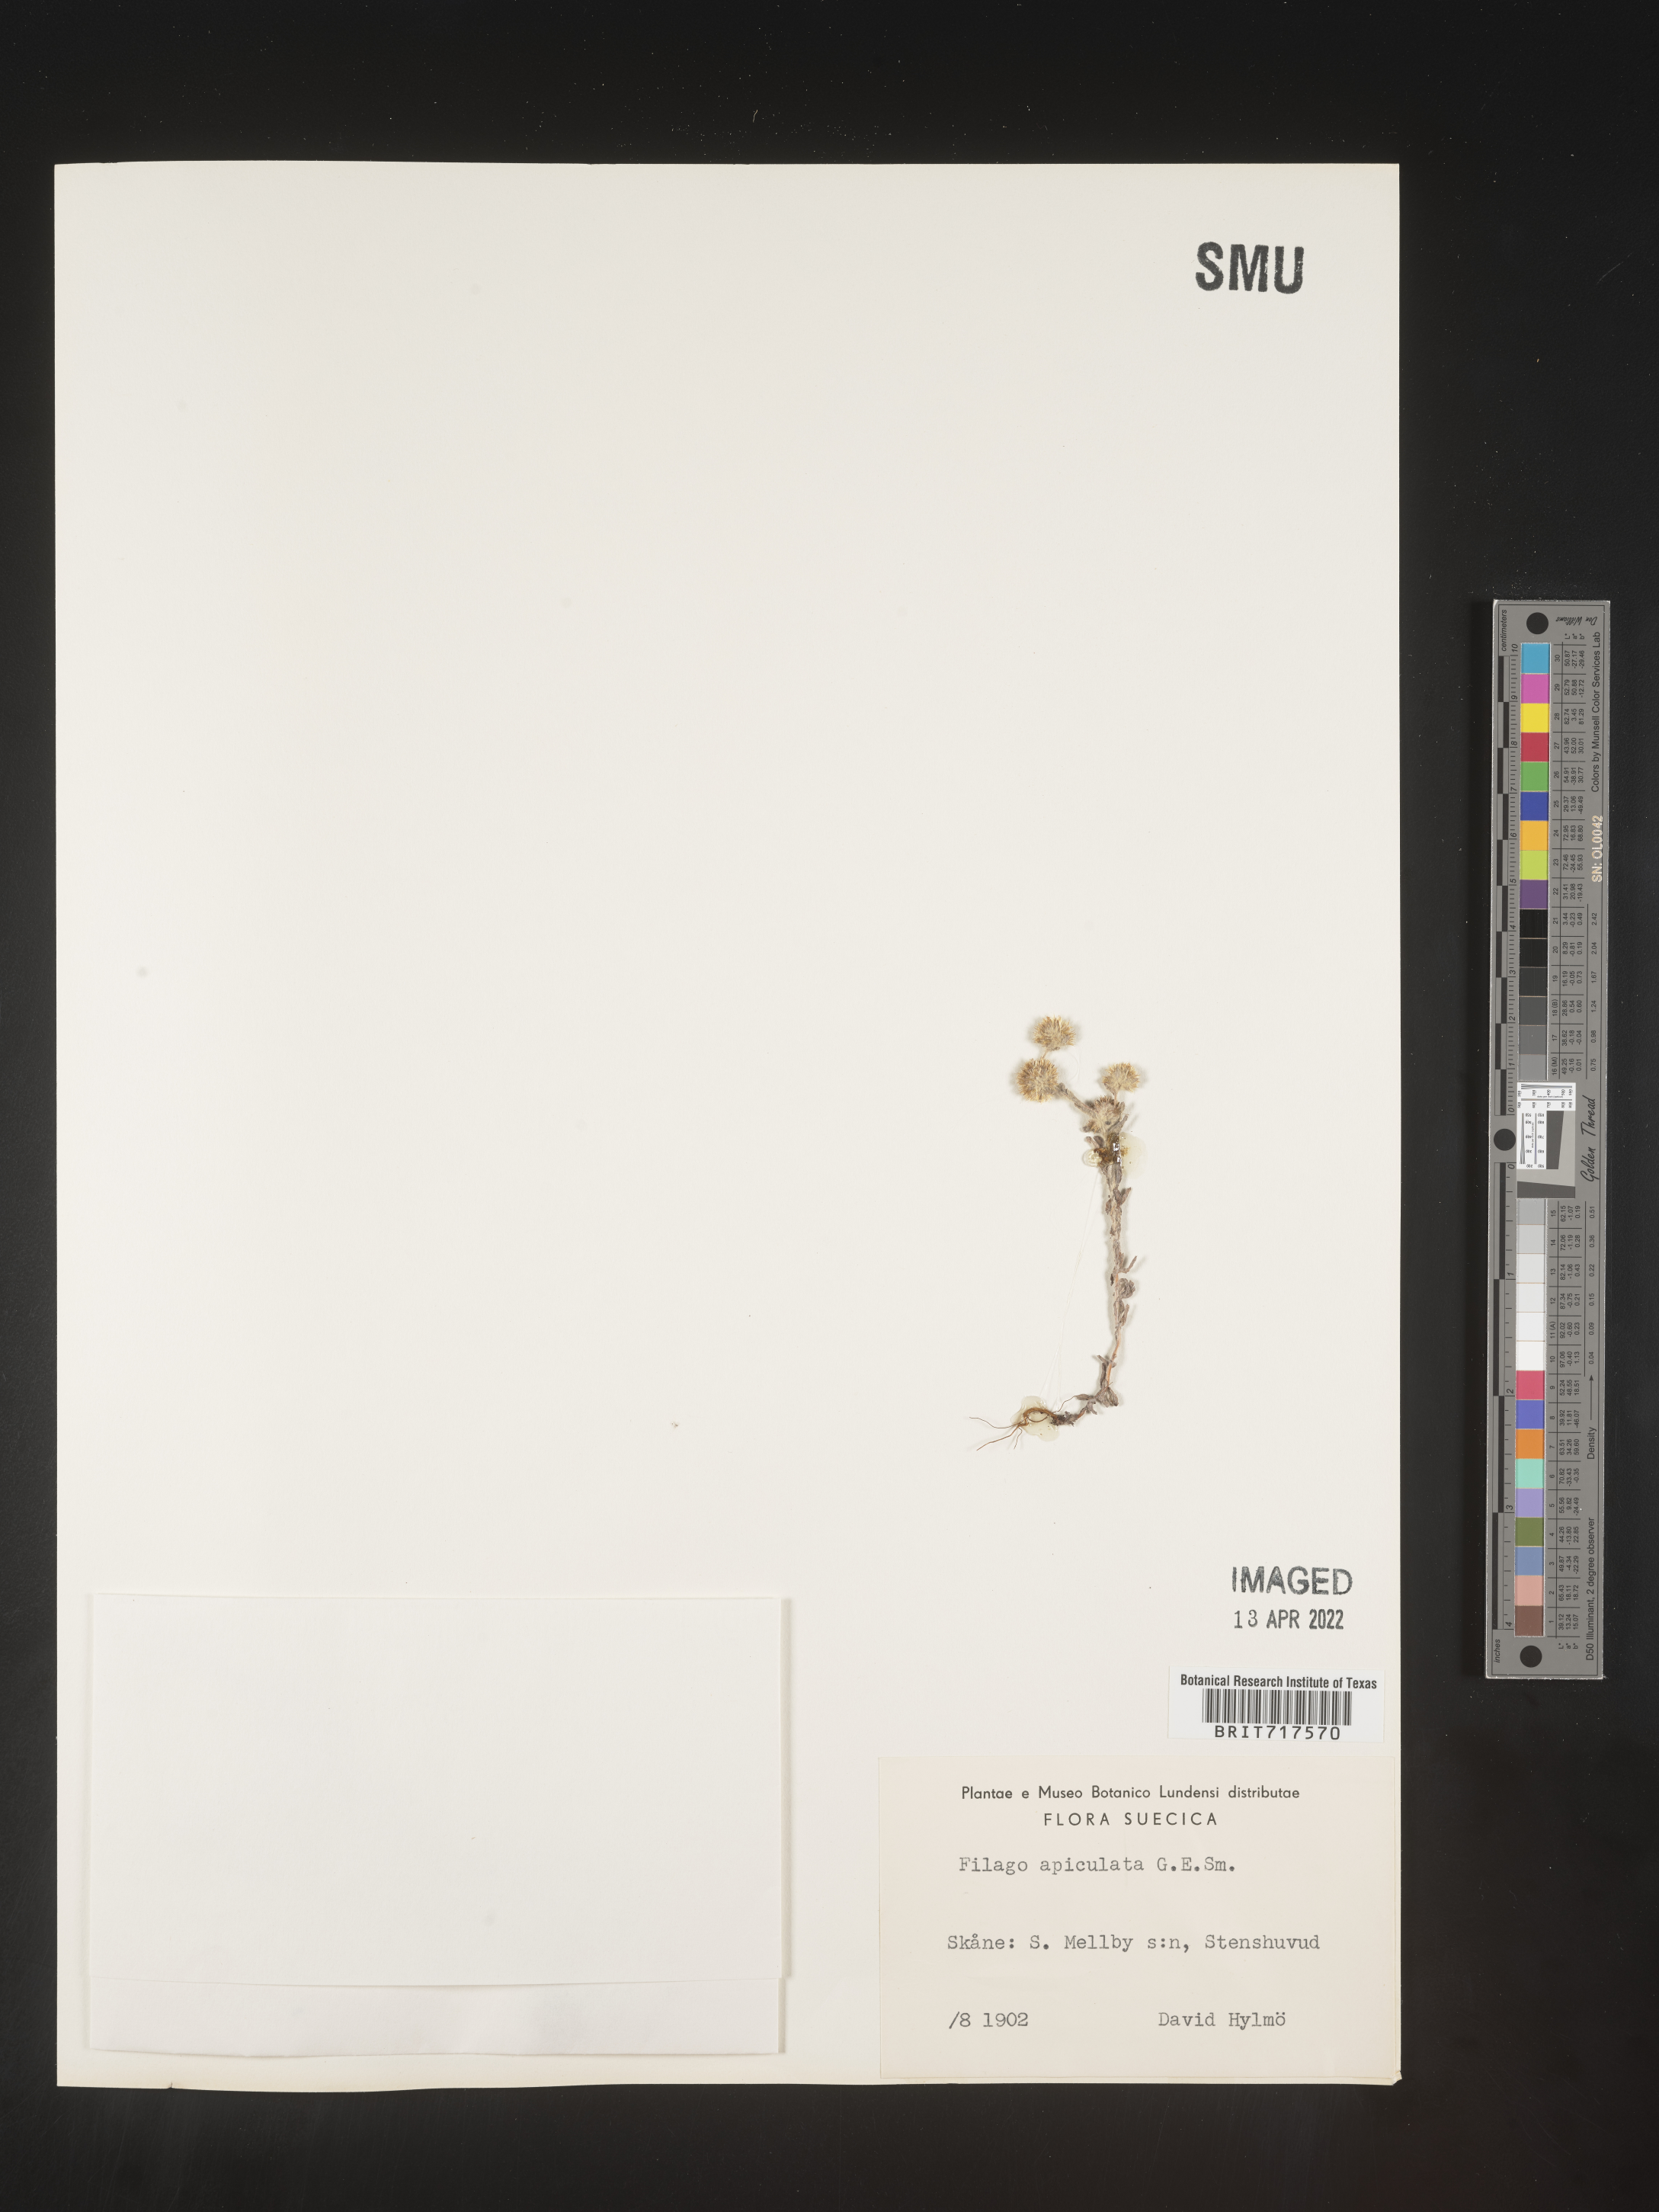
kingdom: Plantae
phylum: Tracheophyta
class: Magnoliopsida
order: Asterales
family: Asteraceae
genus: Filago
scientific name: Filago
